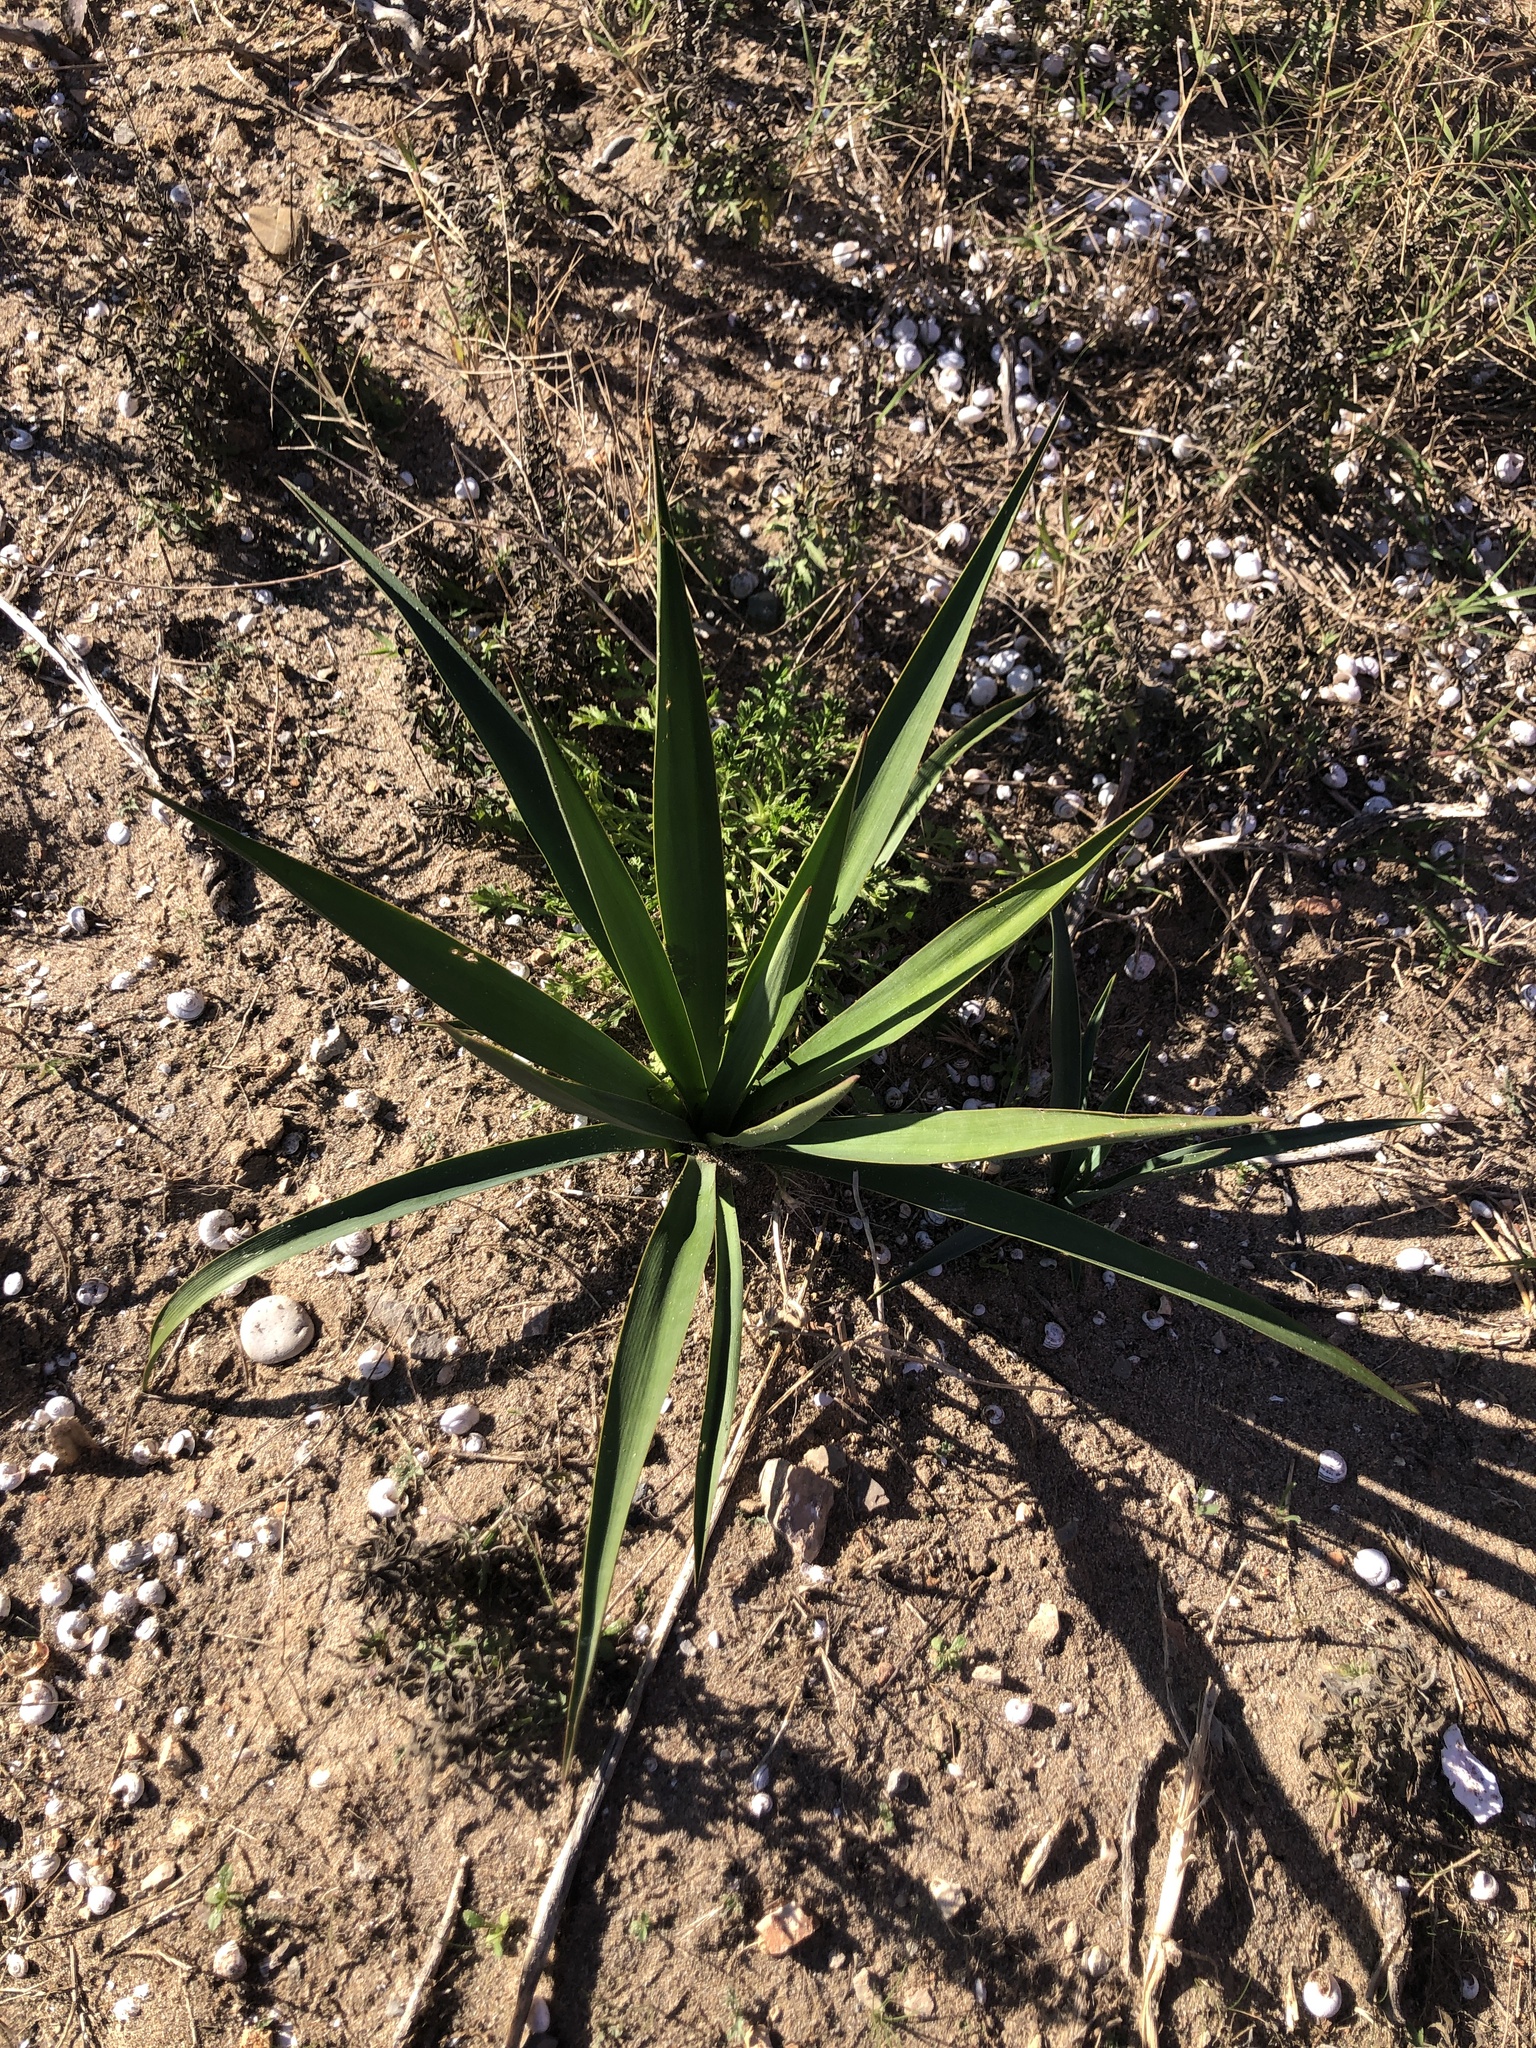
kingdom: Plantae
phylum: Tracheophyta
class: Liliopsida
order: Asparagales
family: Asparagaceae
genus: Yucca
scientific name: Yucca aloifolia
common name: Aloe yucca
